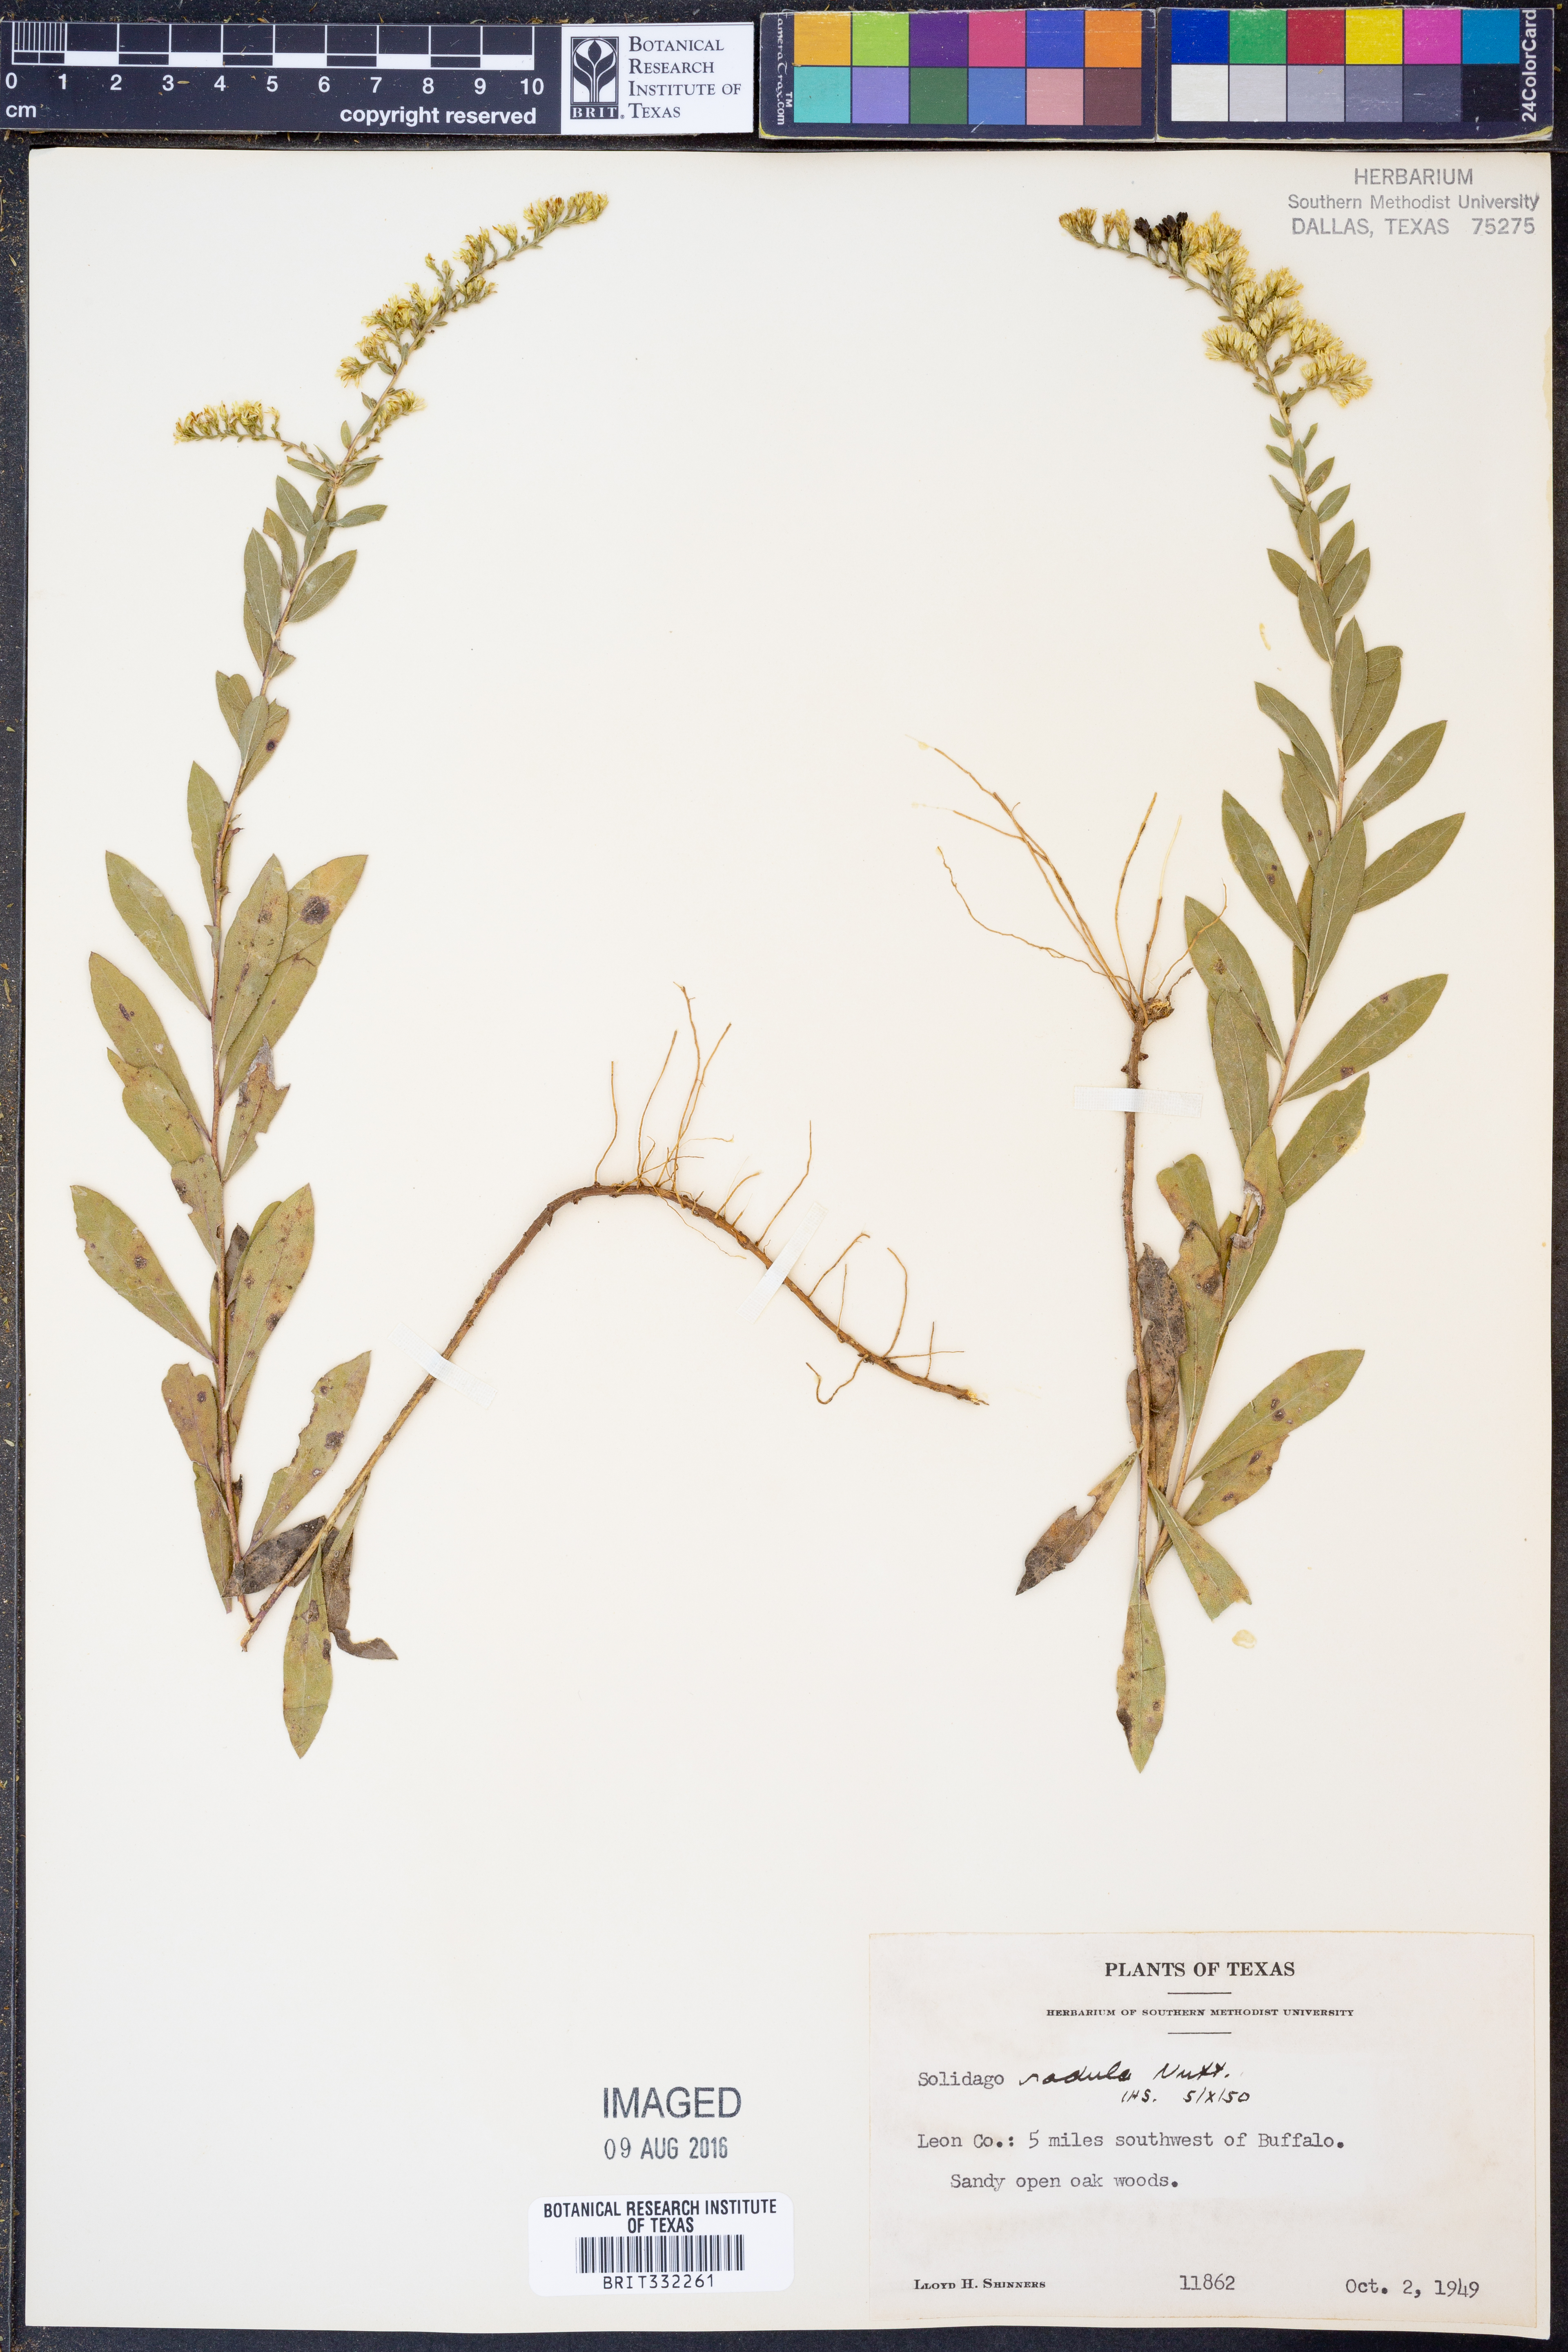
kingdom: Plantae
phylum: Tracheophyta
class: Magnoliopsida
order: Asterales
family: Asteraceae
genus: Solidago
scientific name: Solidago radula
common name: Western rough goldenrod
